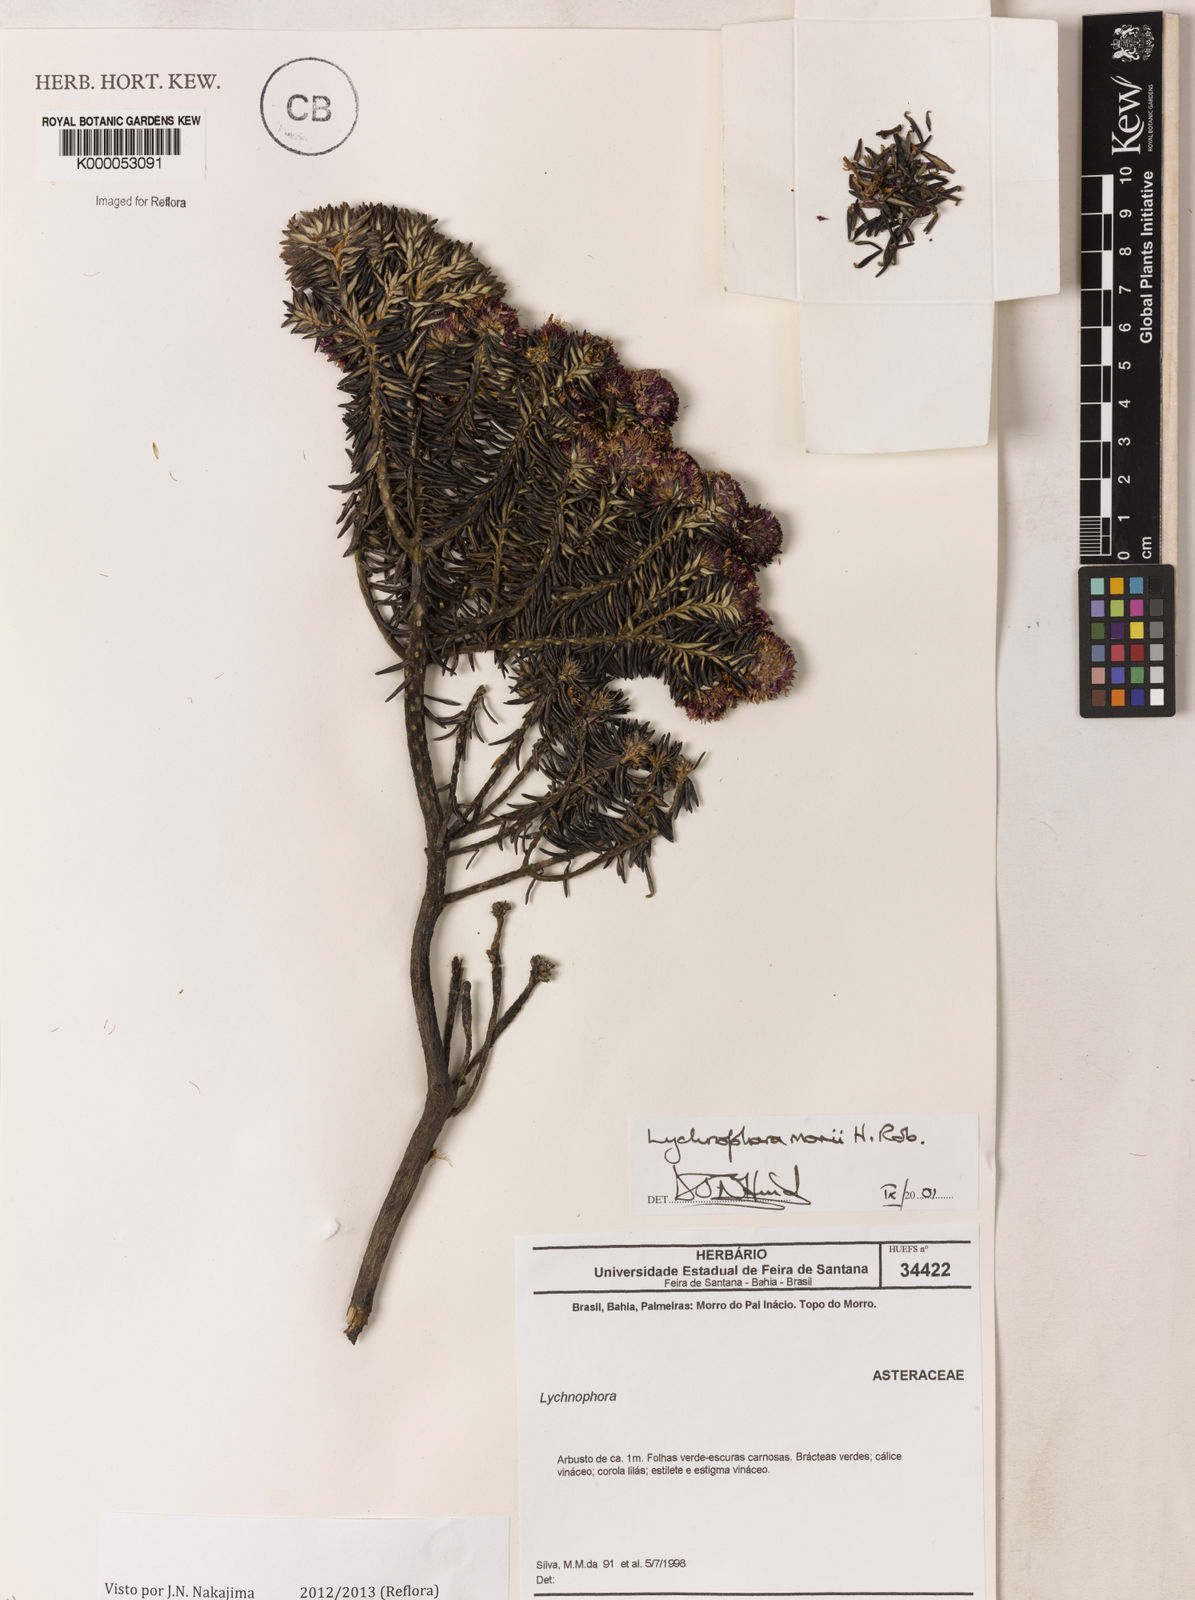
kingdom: Plantae
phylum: Tracheophyta
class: Magnoliopsida
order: Asterales
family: Asteraceae
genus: Lychnophorella
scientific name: Lychnophorella morii
